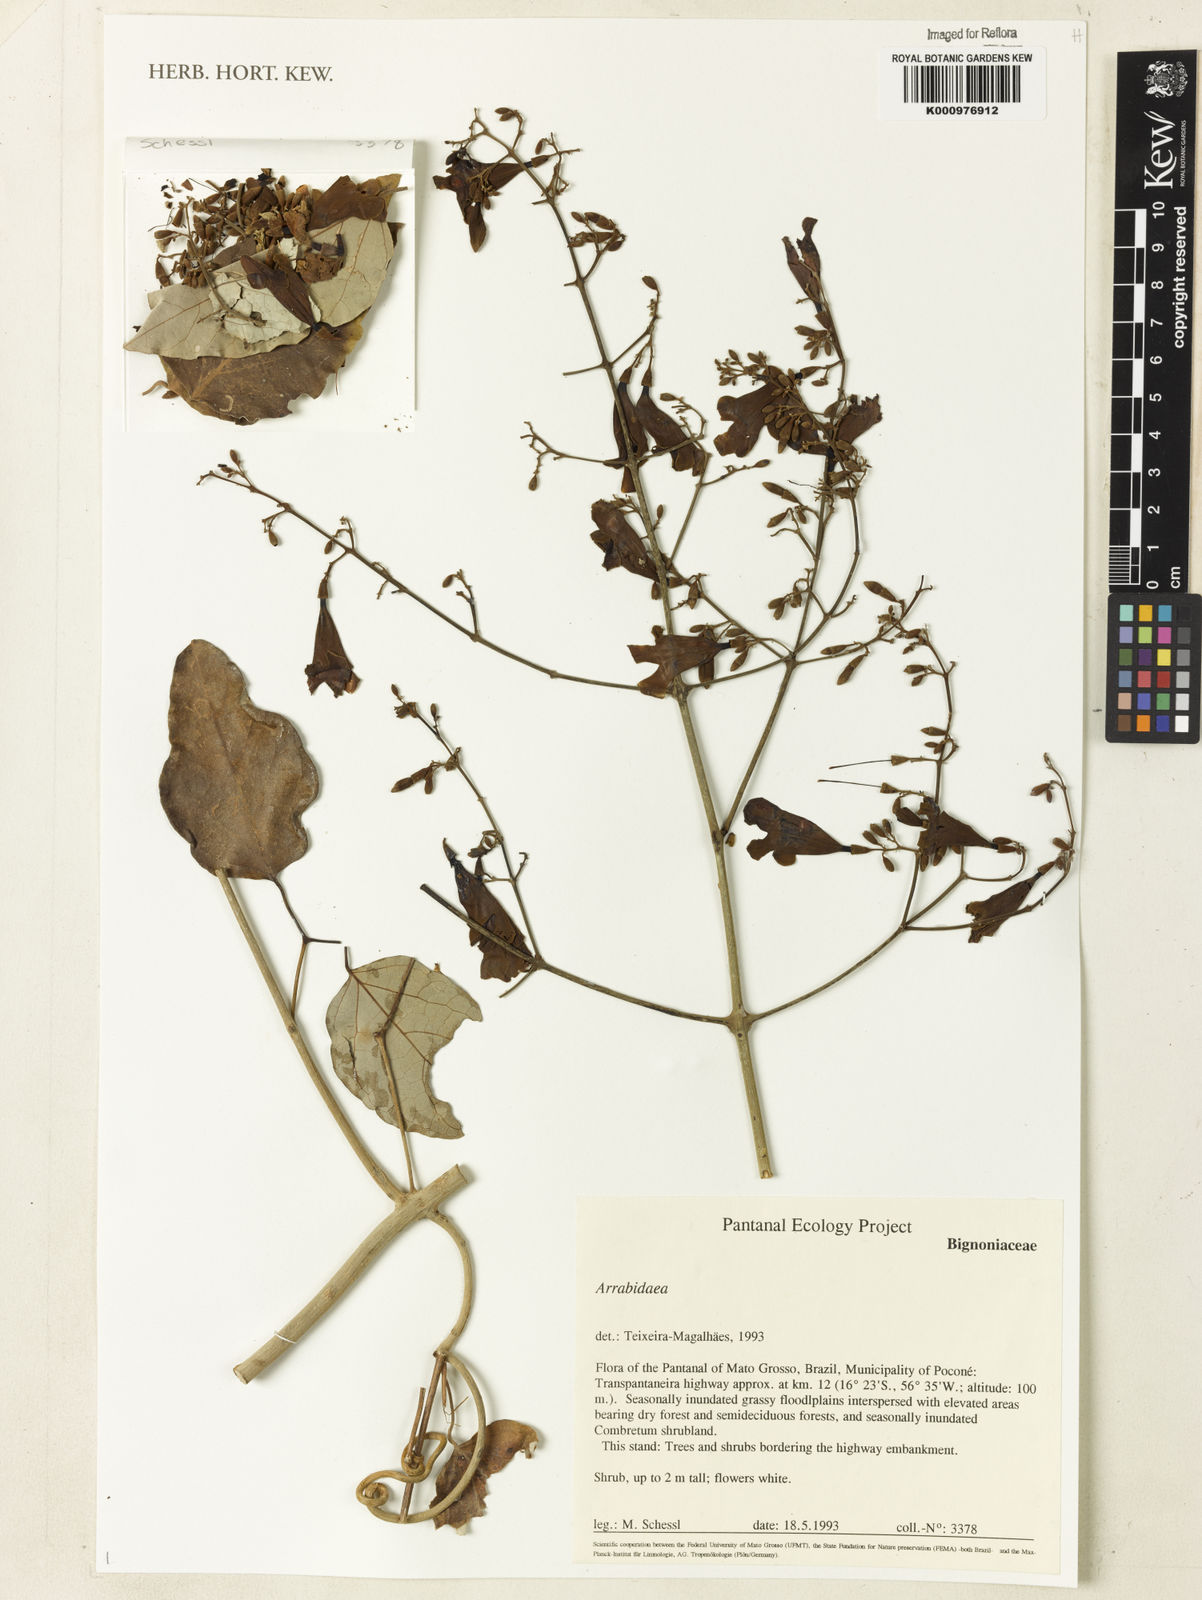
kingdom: Plantae
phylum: Tracheophyta
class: Magnoliopsida
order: Rosales
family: Rhamnaceae
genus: Arrabidaea
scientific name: Arrabidaea
